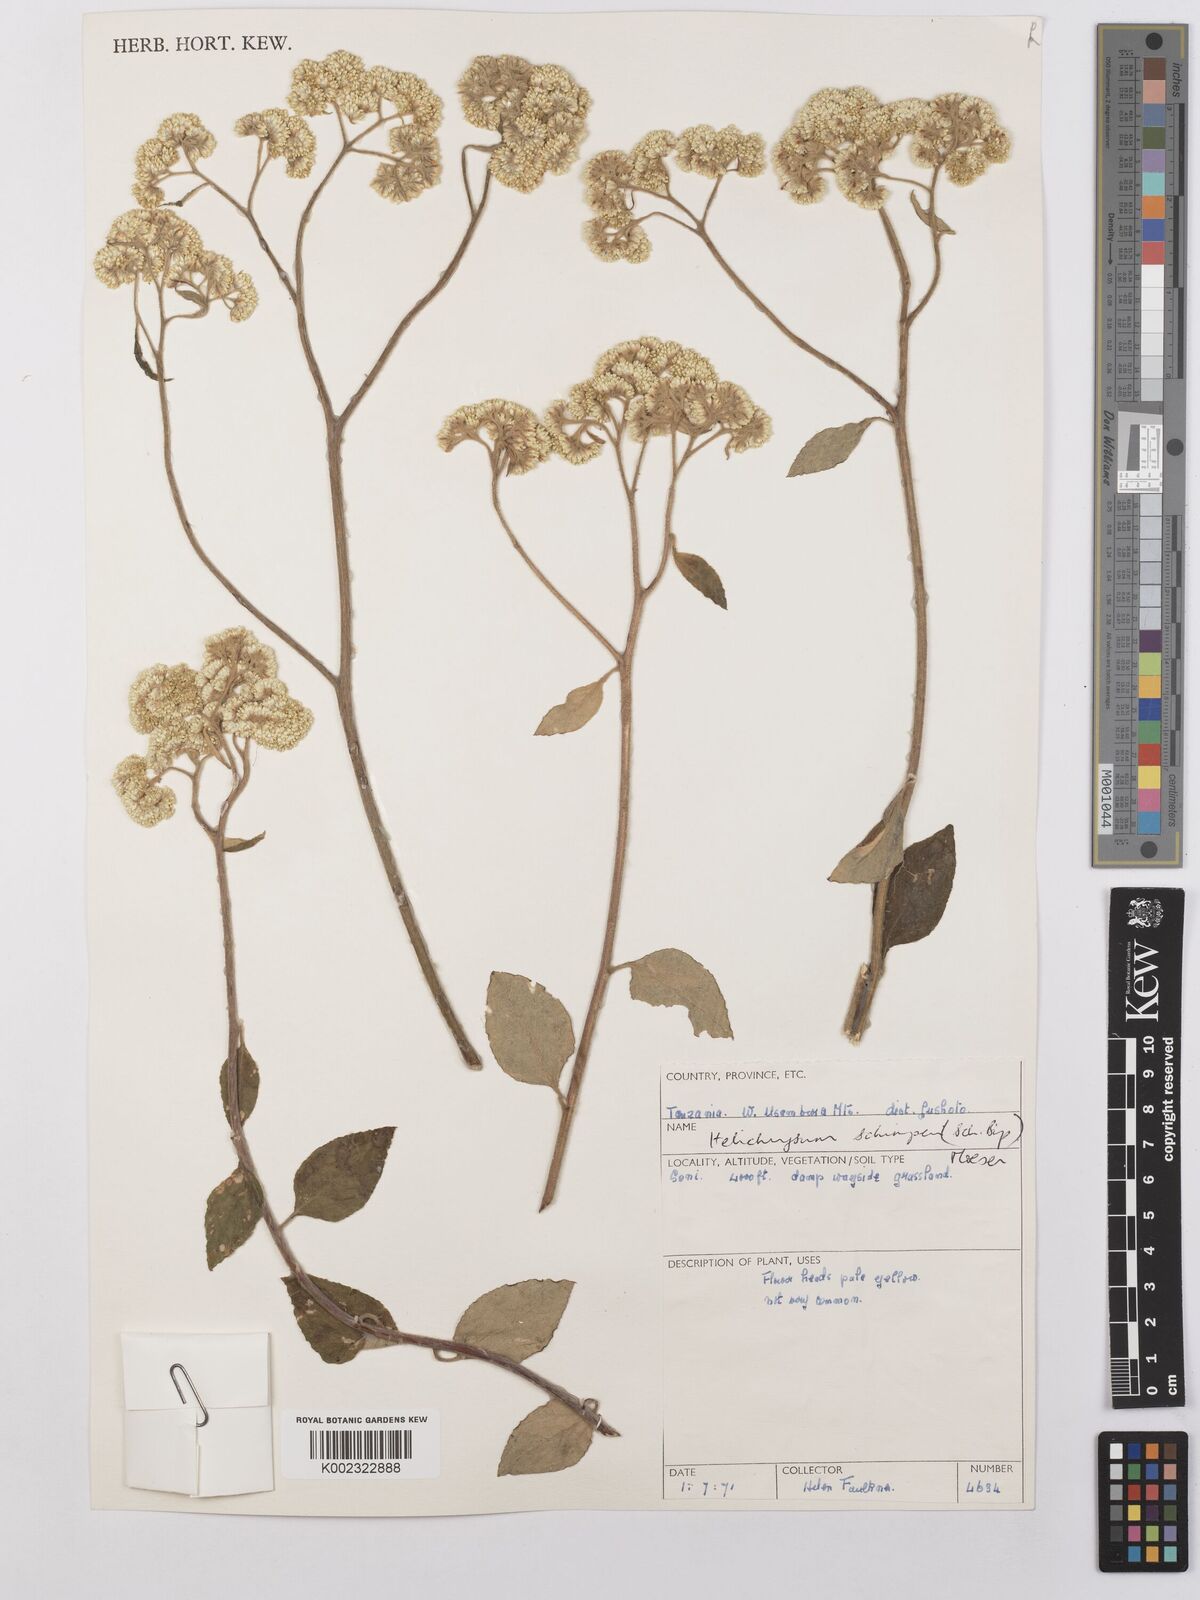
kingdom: Plantae
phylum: Tracheophyta
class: Magnoliopsida
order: Asterales
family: Asteraceae
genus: Helichrysum
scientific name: Helichrysum schimperi
